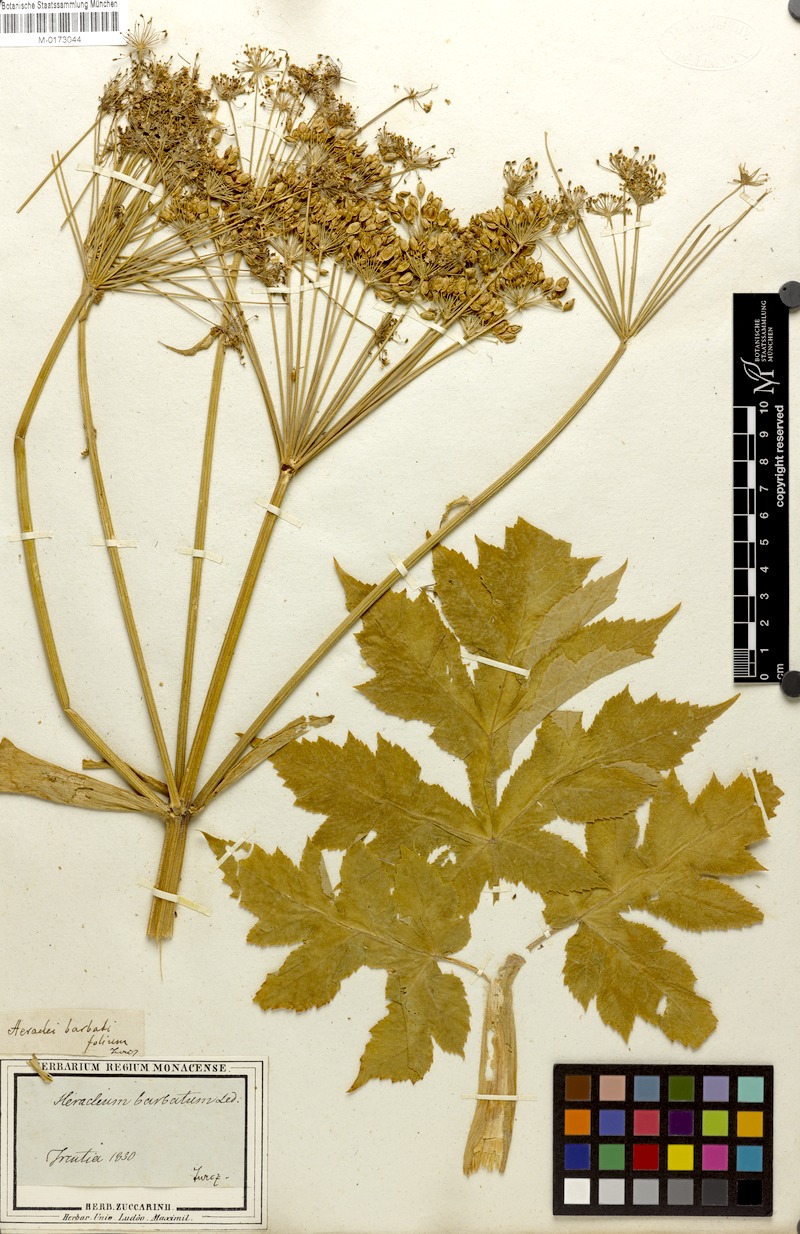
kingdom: Plantae
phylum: Tracheophyta
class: Magnoliopsida
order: Apiales
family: Apiaceae
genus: Heracleum
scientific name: Heracleum dissectum
